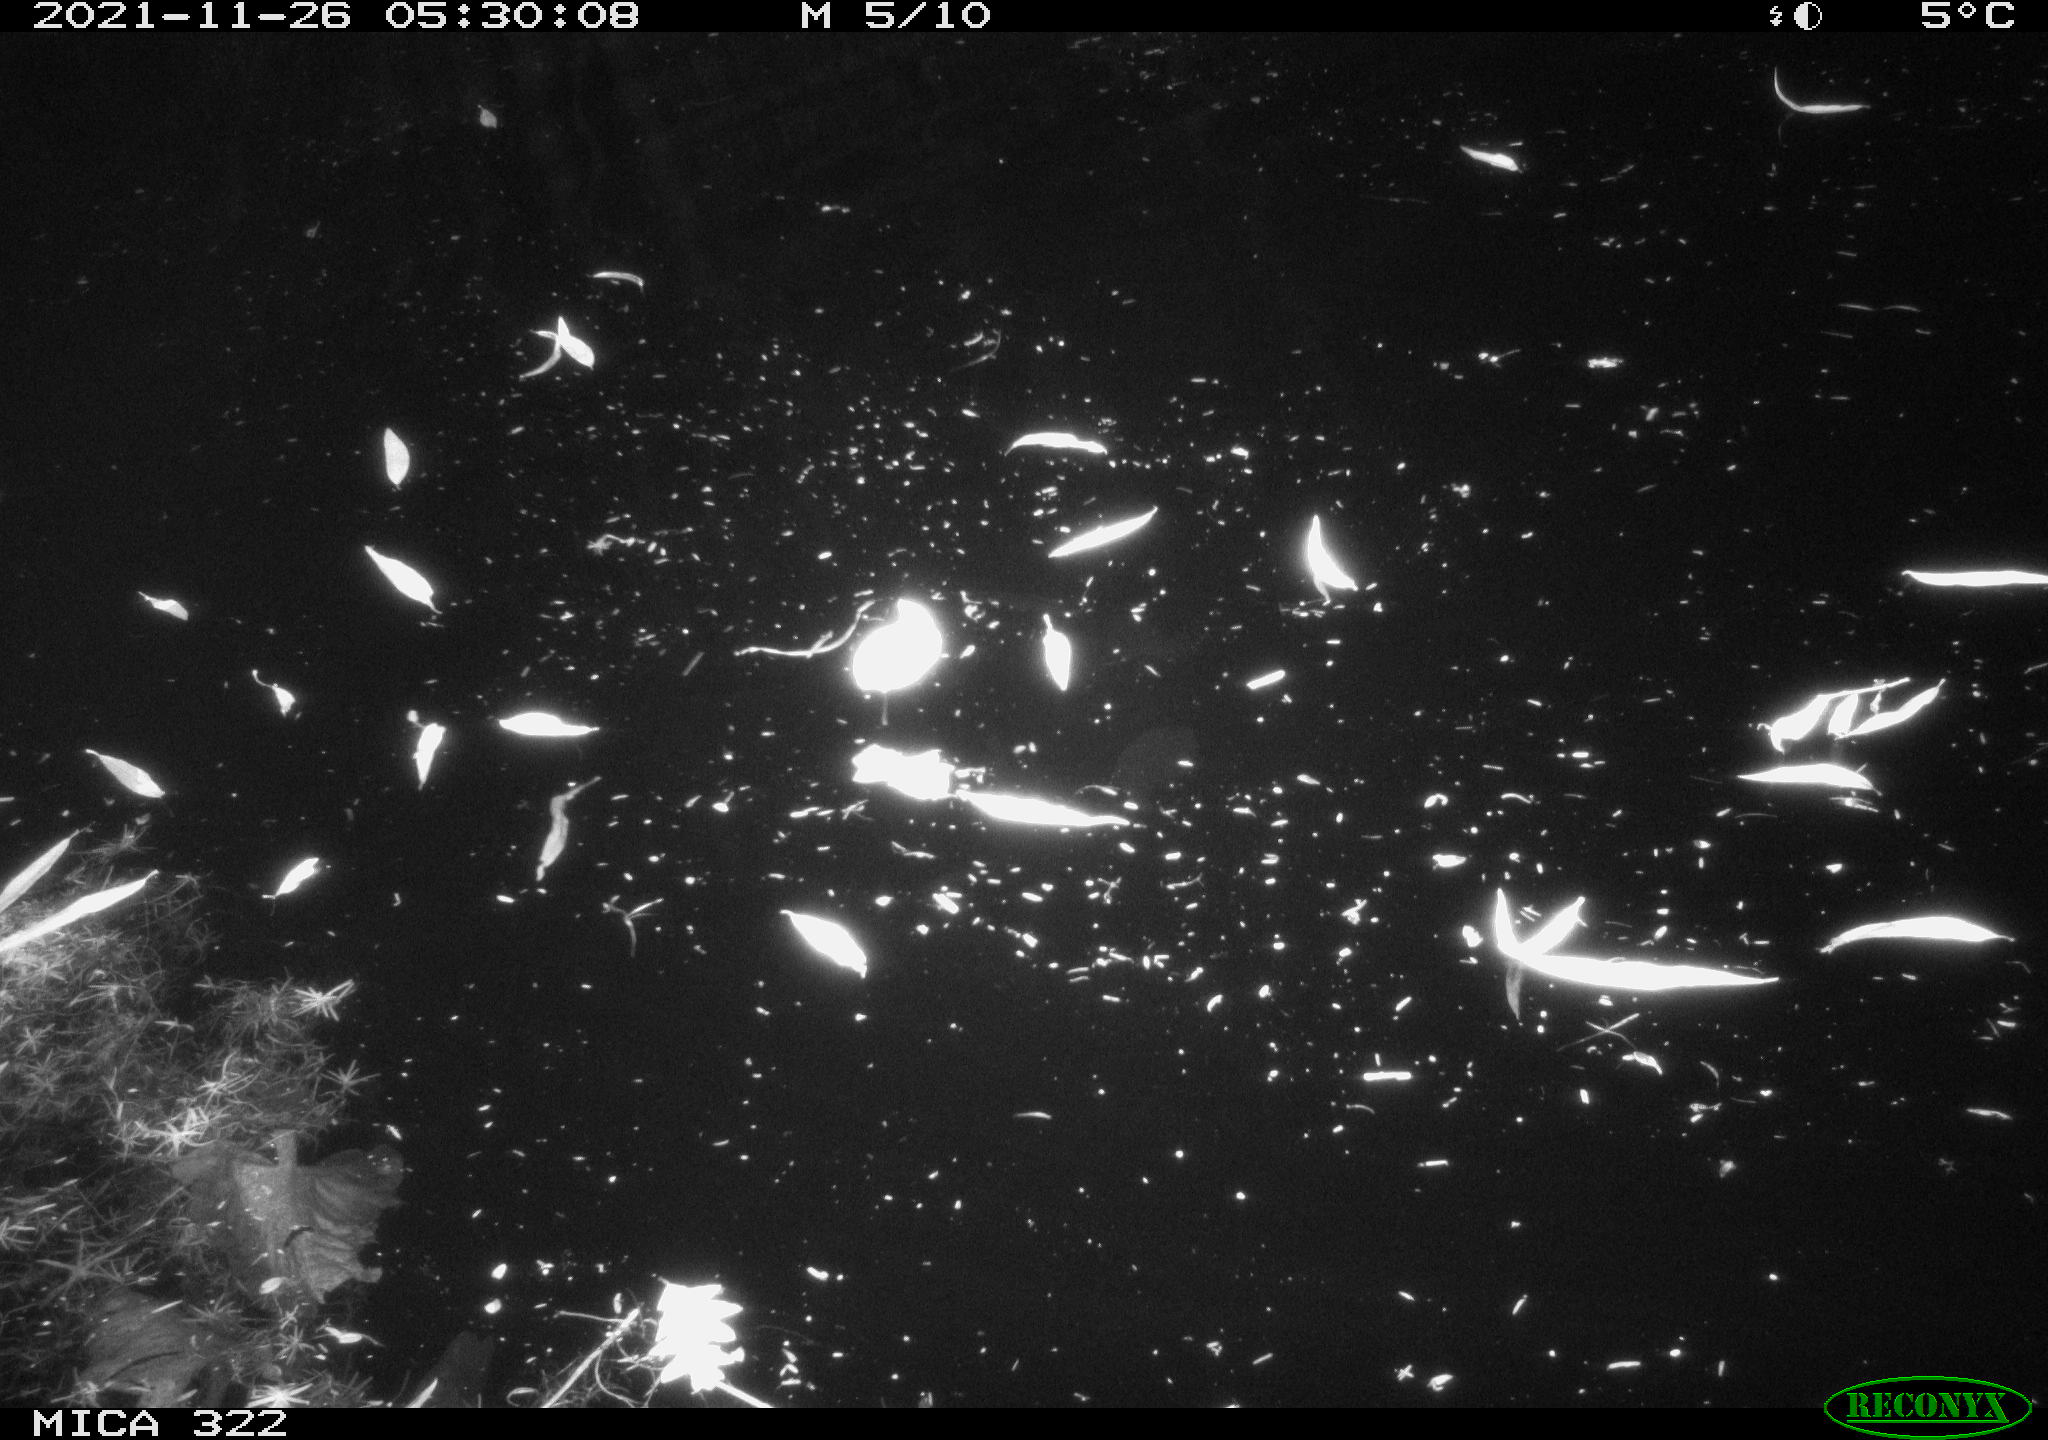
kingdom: Animalia
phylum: Chordata
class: Mammalia
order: Rodentia
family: Muridae
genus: Rattus
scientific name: Rattus norvegicus
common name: Brown rat
